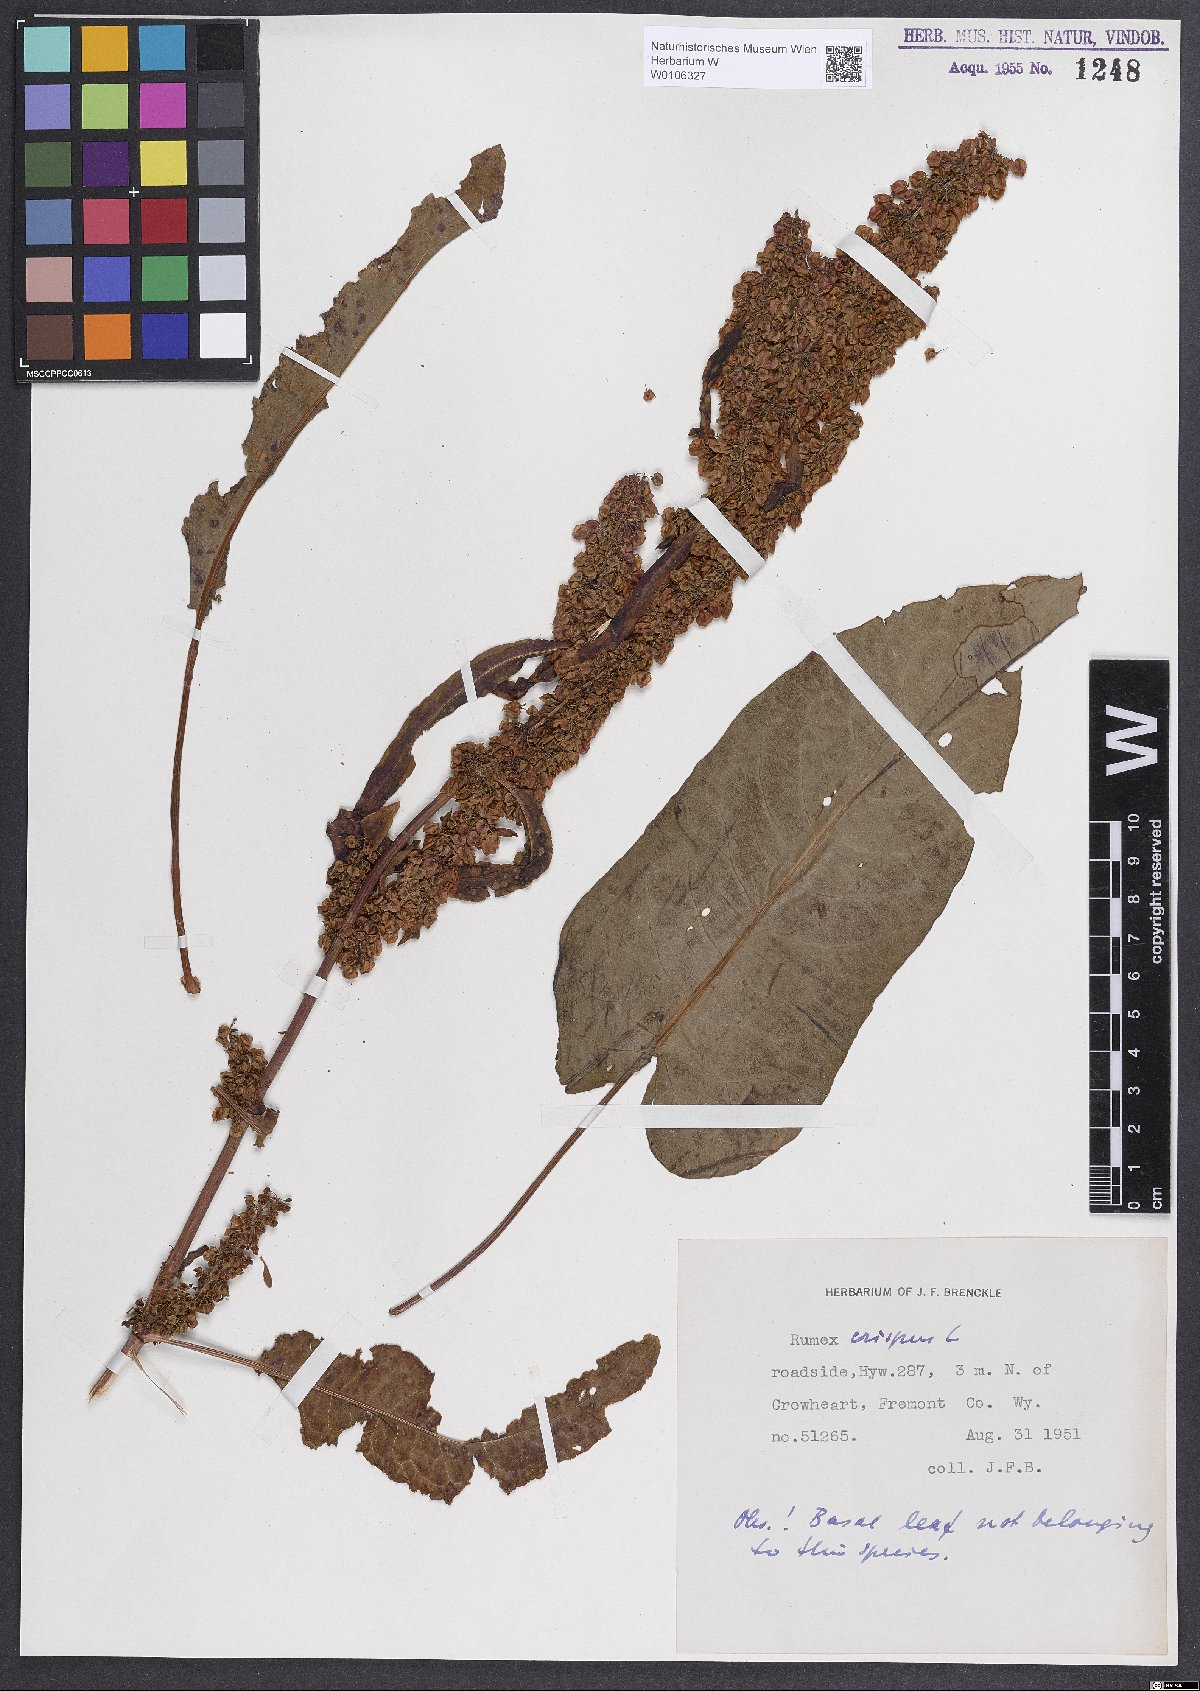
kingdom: Plantae
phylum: Tracheophyta
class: Magnoliopsida
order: Caryophyllales
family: Polygonaceae
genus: Rumex
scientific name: Rumex crispus
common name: Curled dock
